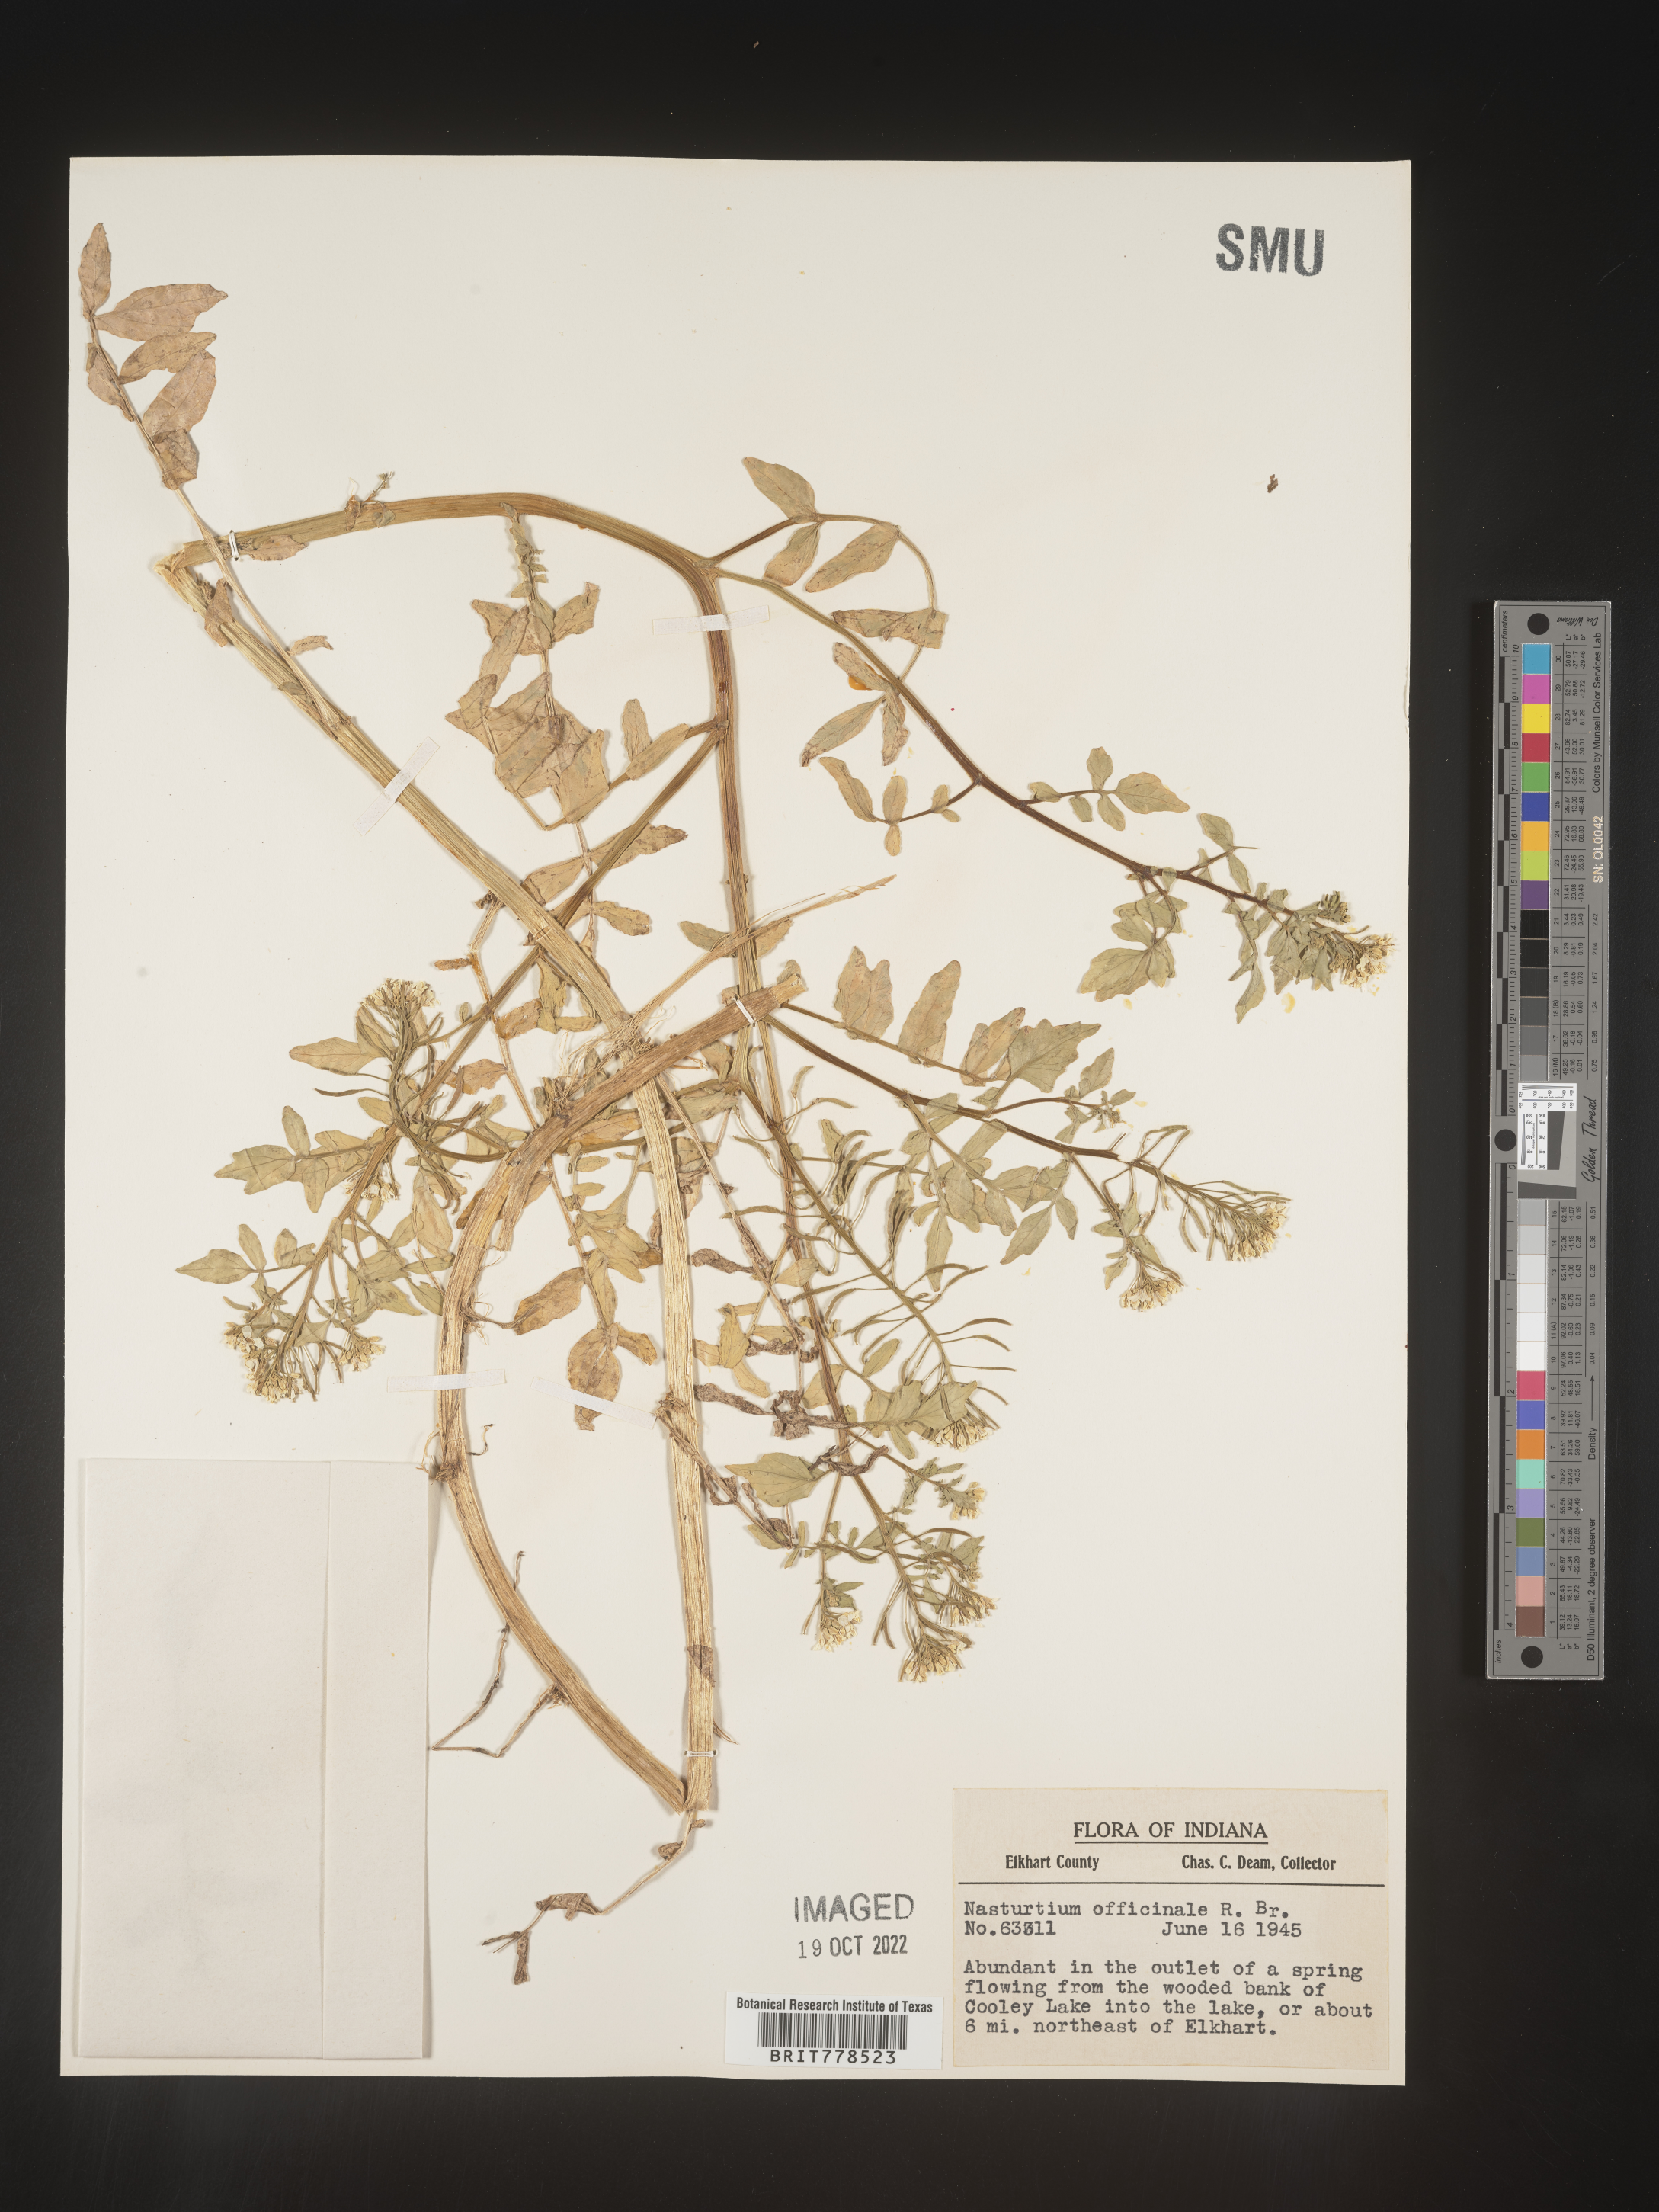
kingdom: Plantae
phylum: Tracheophyta
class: Magnoliopsida
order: Brassicales
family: Brassicaceae
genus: Nasturtium
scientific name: Nasturtium officinale
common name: Watercress
